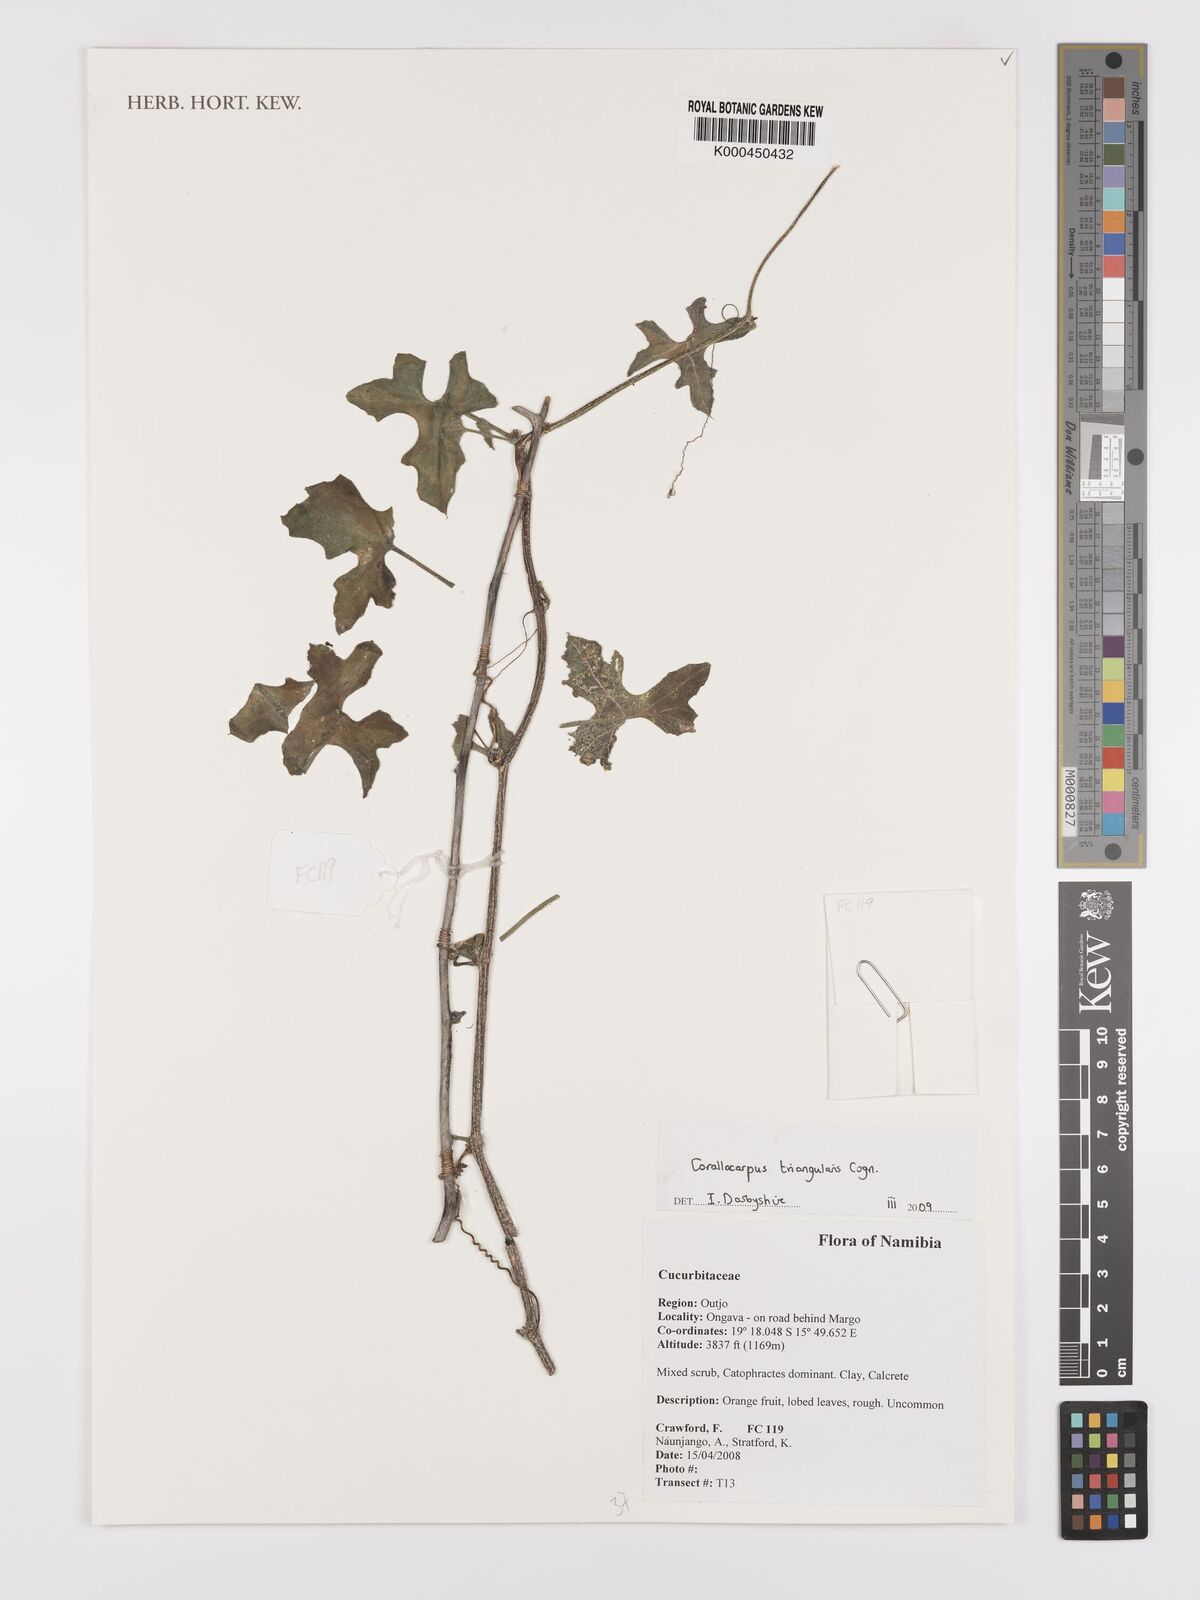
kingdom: Plantae
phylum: Tracheophyta
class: Magnoliopsida
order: Cucurbitales
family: Cucurbitaceae
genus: Corallocarpus
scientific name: Corallocarpus triangularis
